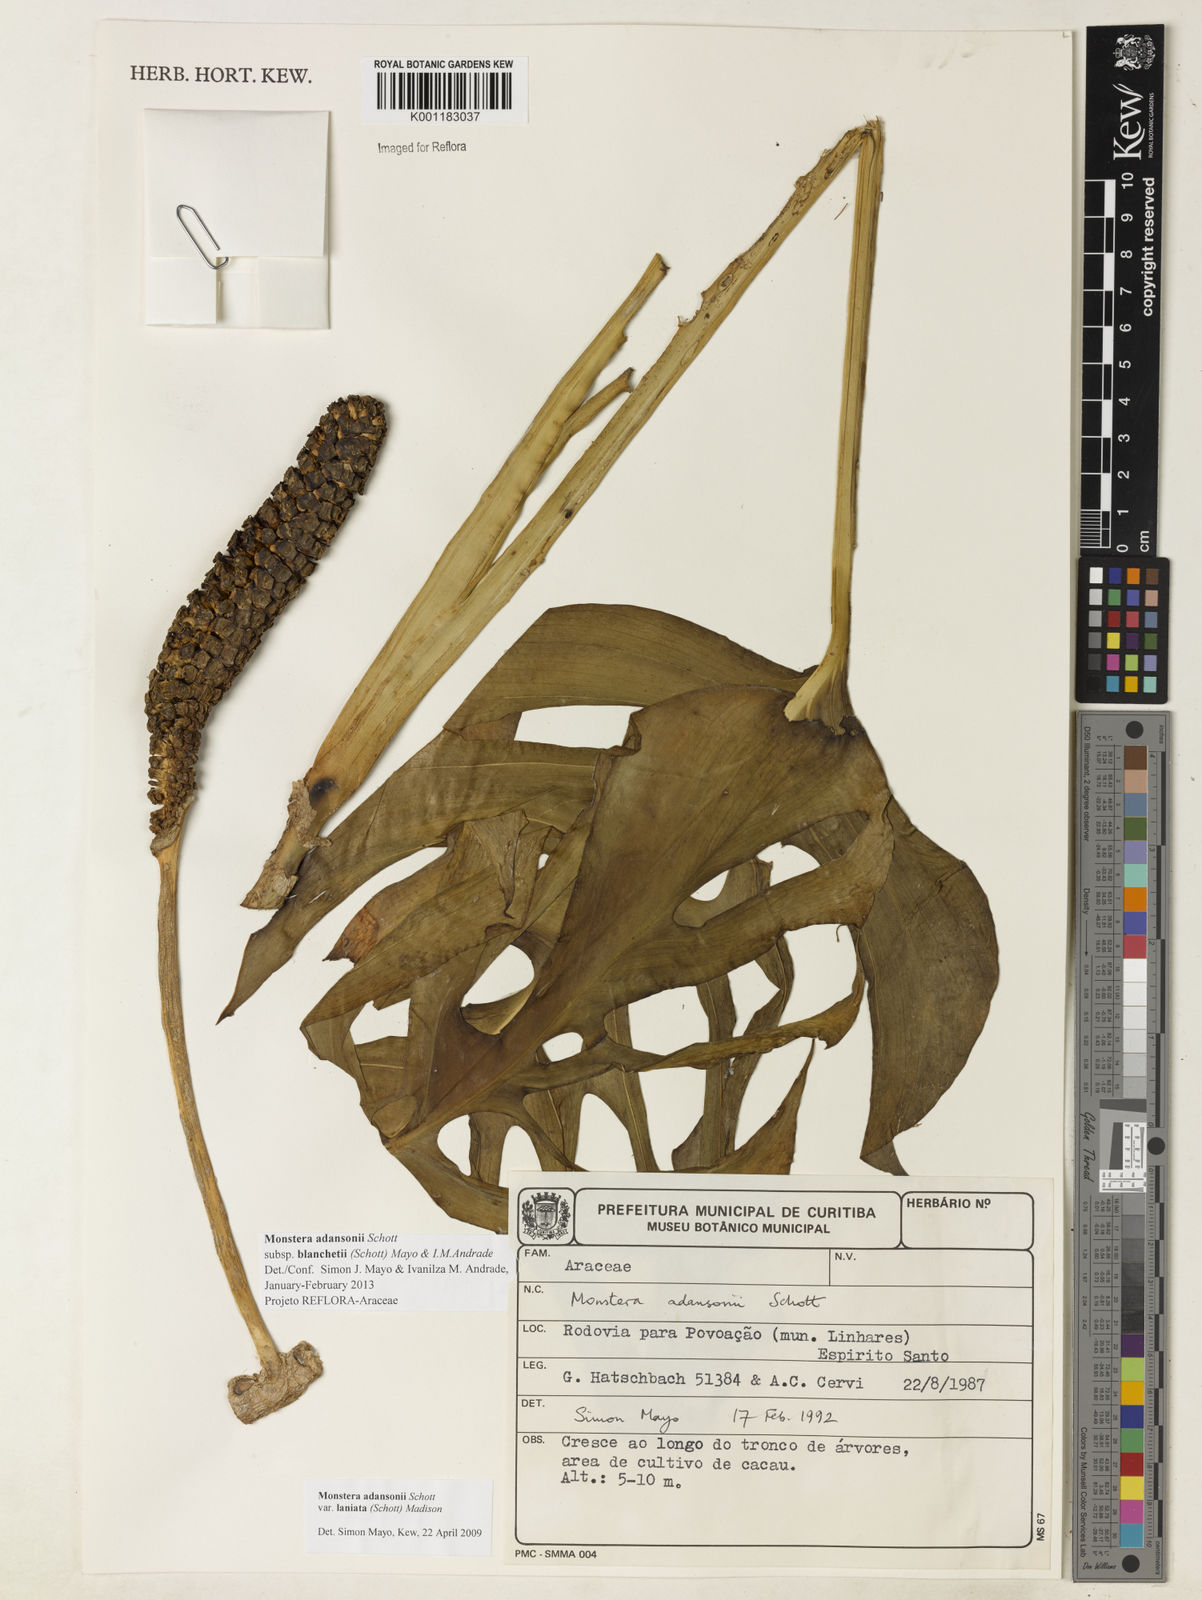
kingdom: Plantae
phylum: Tracheophyta
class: Liliopsida
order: Alismatales
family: Araceae
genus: Monstera
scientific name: Monstera adansonii
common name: Tarovine
